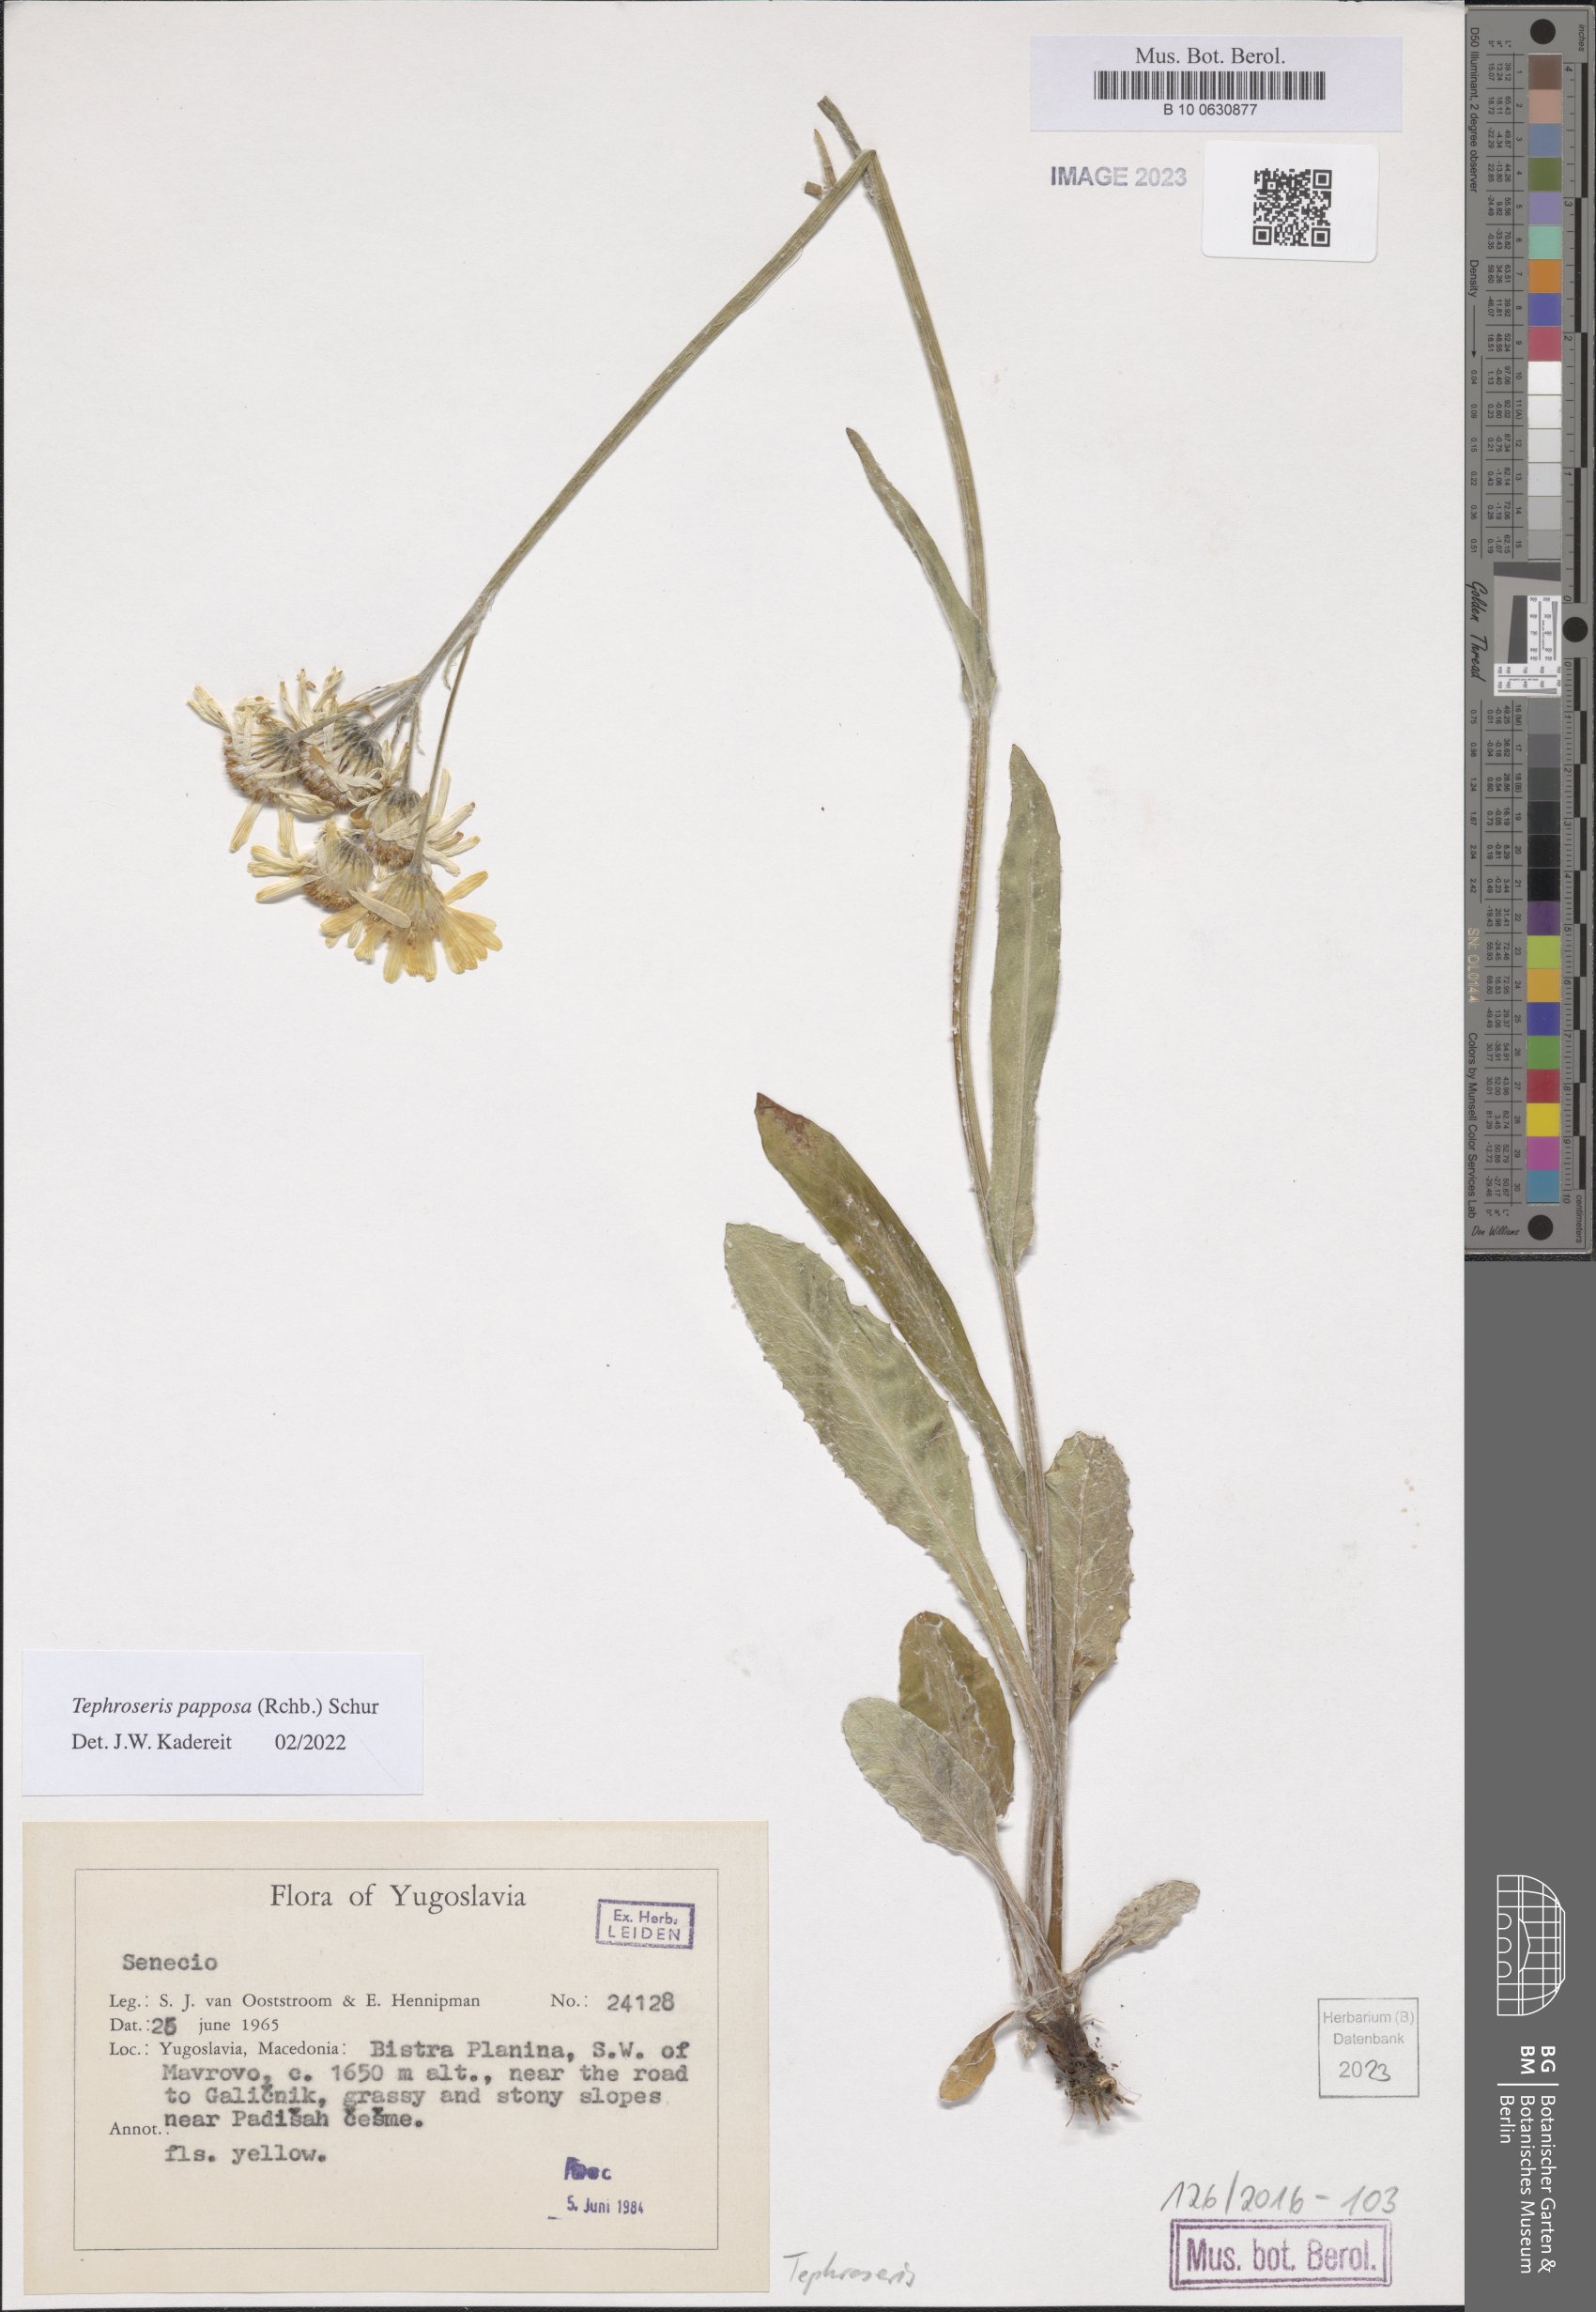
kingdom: Plantae
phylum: Tracheophyta
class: Magnoliopsida
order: Asterales
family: Asteraceae
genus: Tephroseris
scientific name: Tephroseris papposa
